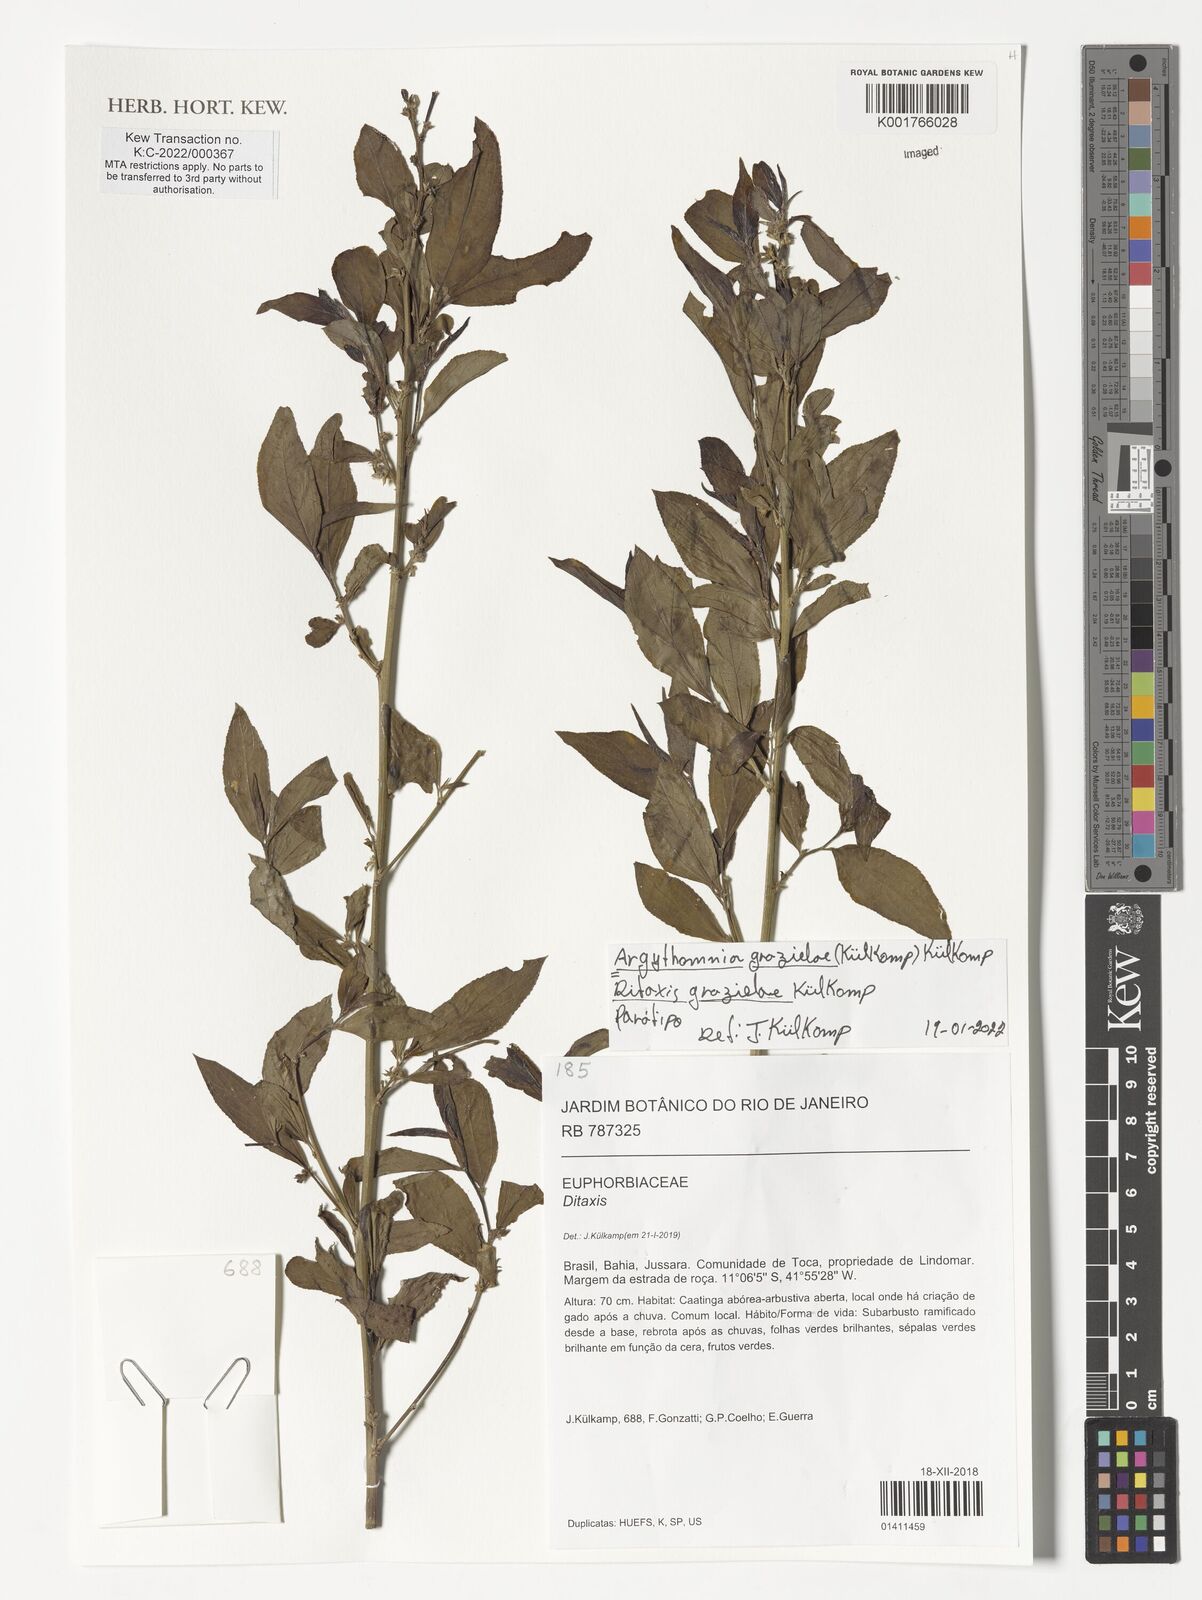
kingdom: Plantae
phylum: Tracheophyta
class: Magnoliopsida
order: Malpighiales
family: Euphorbiaceae
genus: Ditaxis
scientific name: Ditaxis
